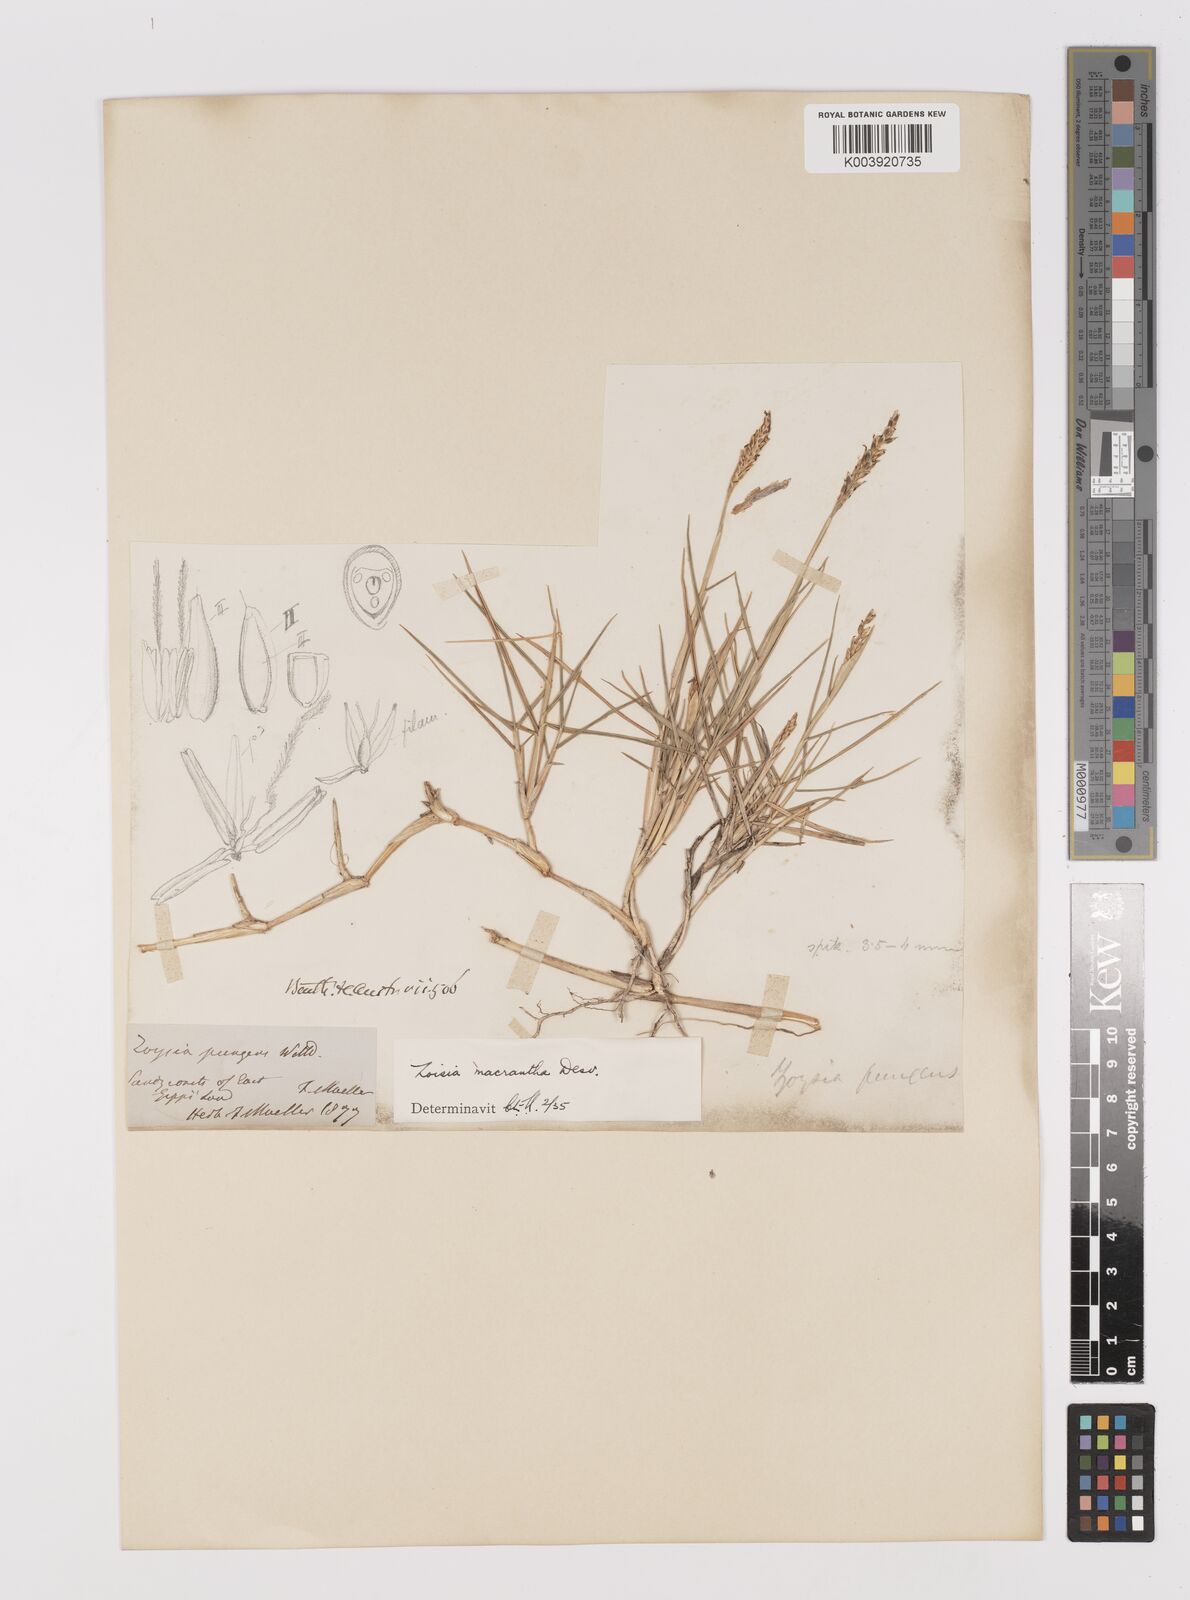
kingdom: Plantae
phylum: Tracheophyta
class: Liliopsida
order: Poales
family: Poaceae
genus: Zoysia
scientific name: Zoysia macrantha
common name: Korean lawn grass
